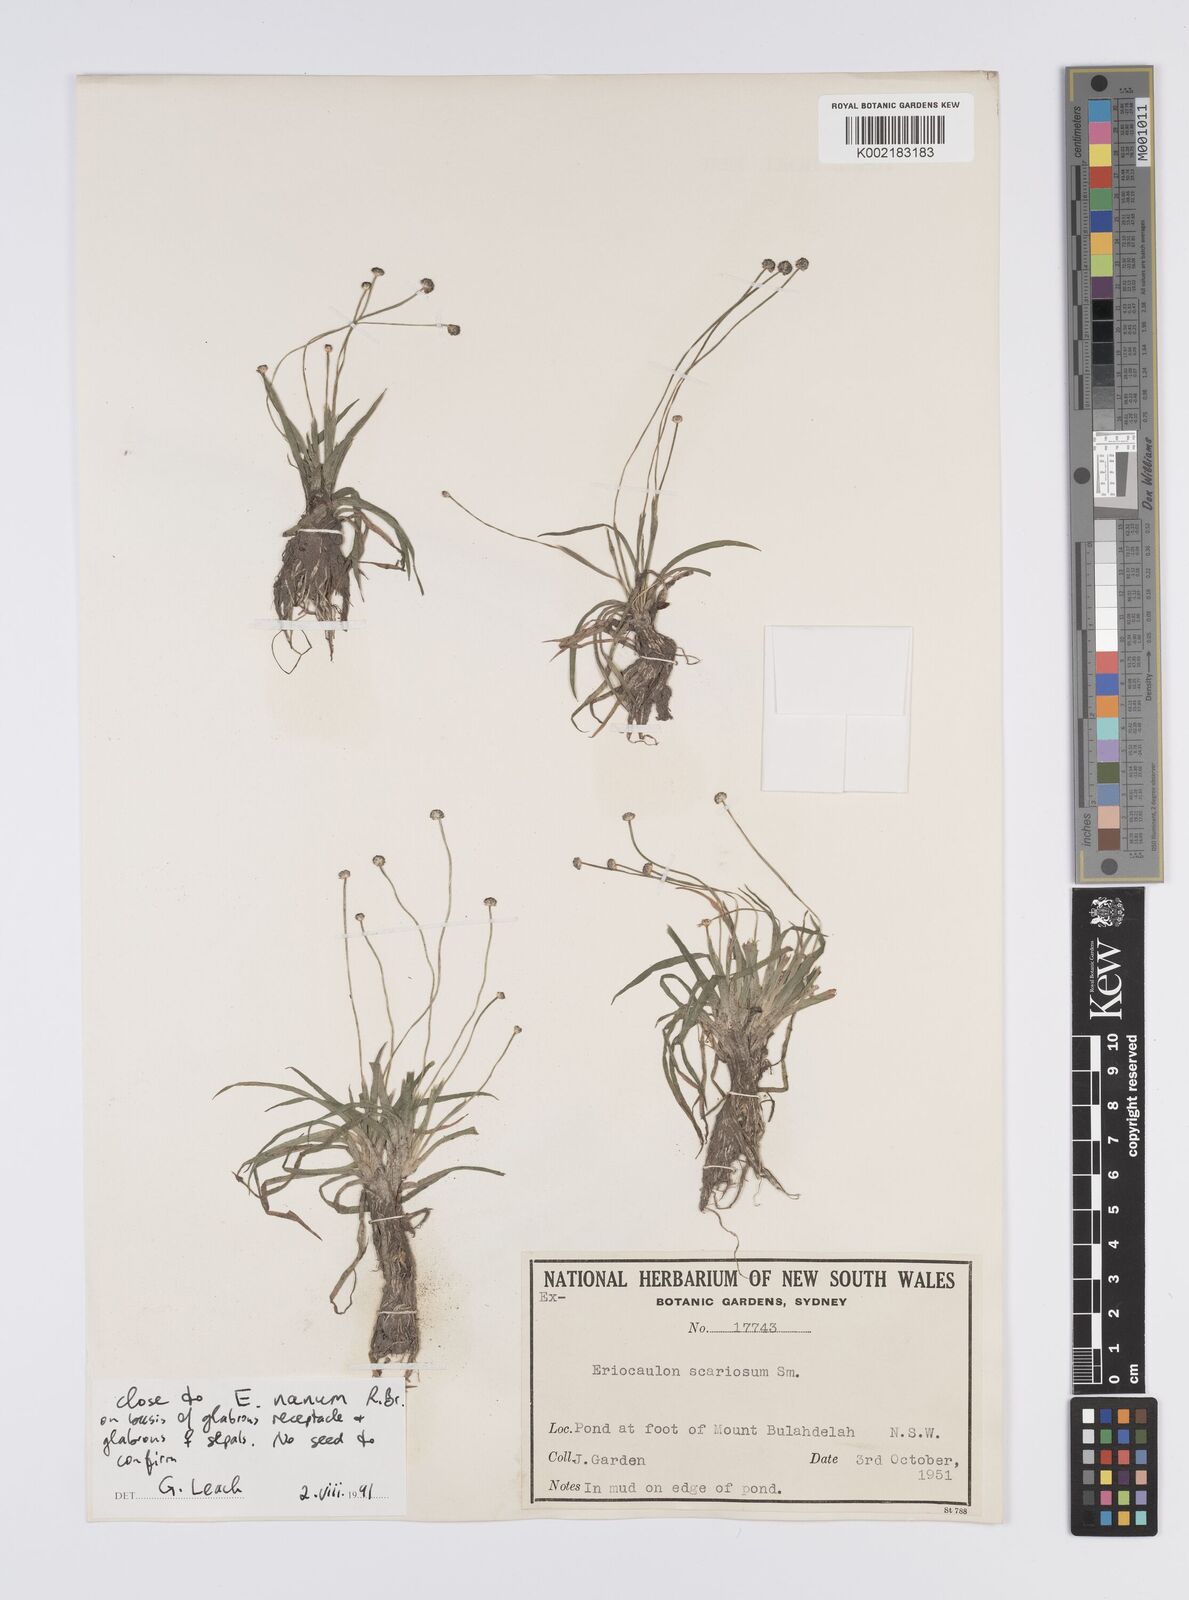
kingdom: Plantae
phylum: Tracheophyta
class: Liliopsida
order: Poales
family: Eriocaulaceae
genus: Eriocaulon
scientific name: Eriocaulon nanum
